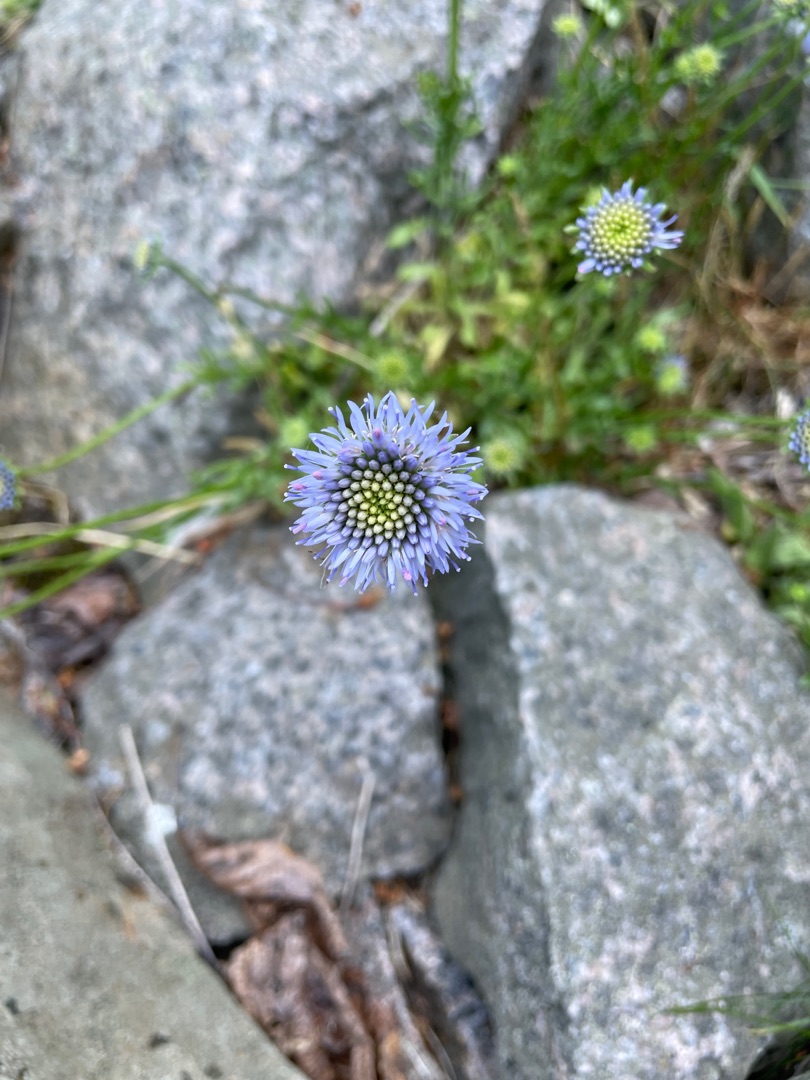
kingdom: Plantae
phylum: Tracheophyta
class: Magnoliopsida
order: Asterales
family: Campanulaceae
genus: Jasione
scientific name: Jasione montana
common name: Blåmunke
